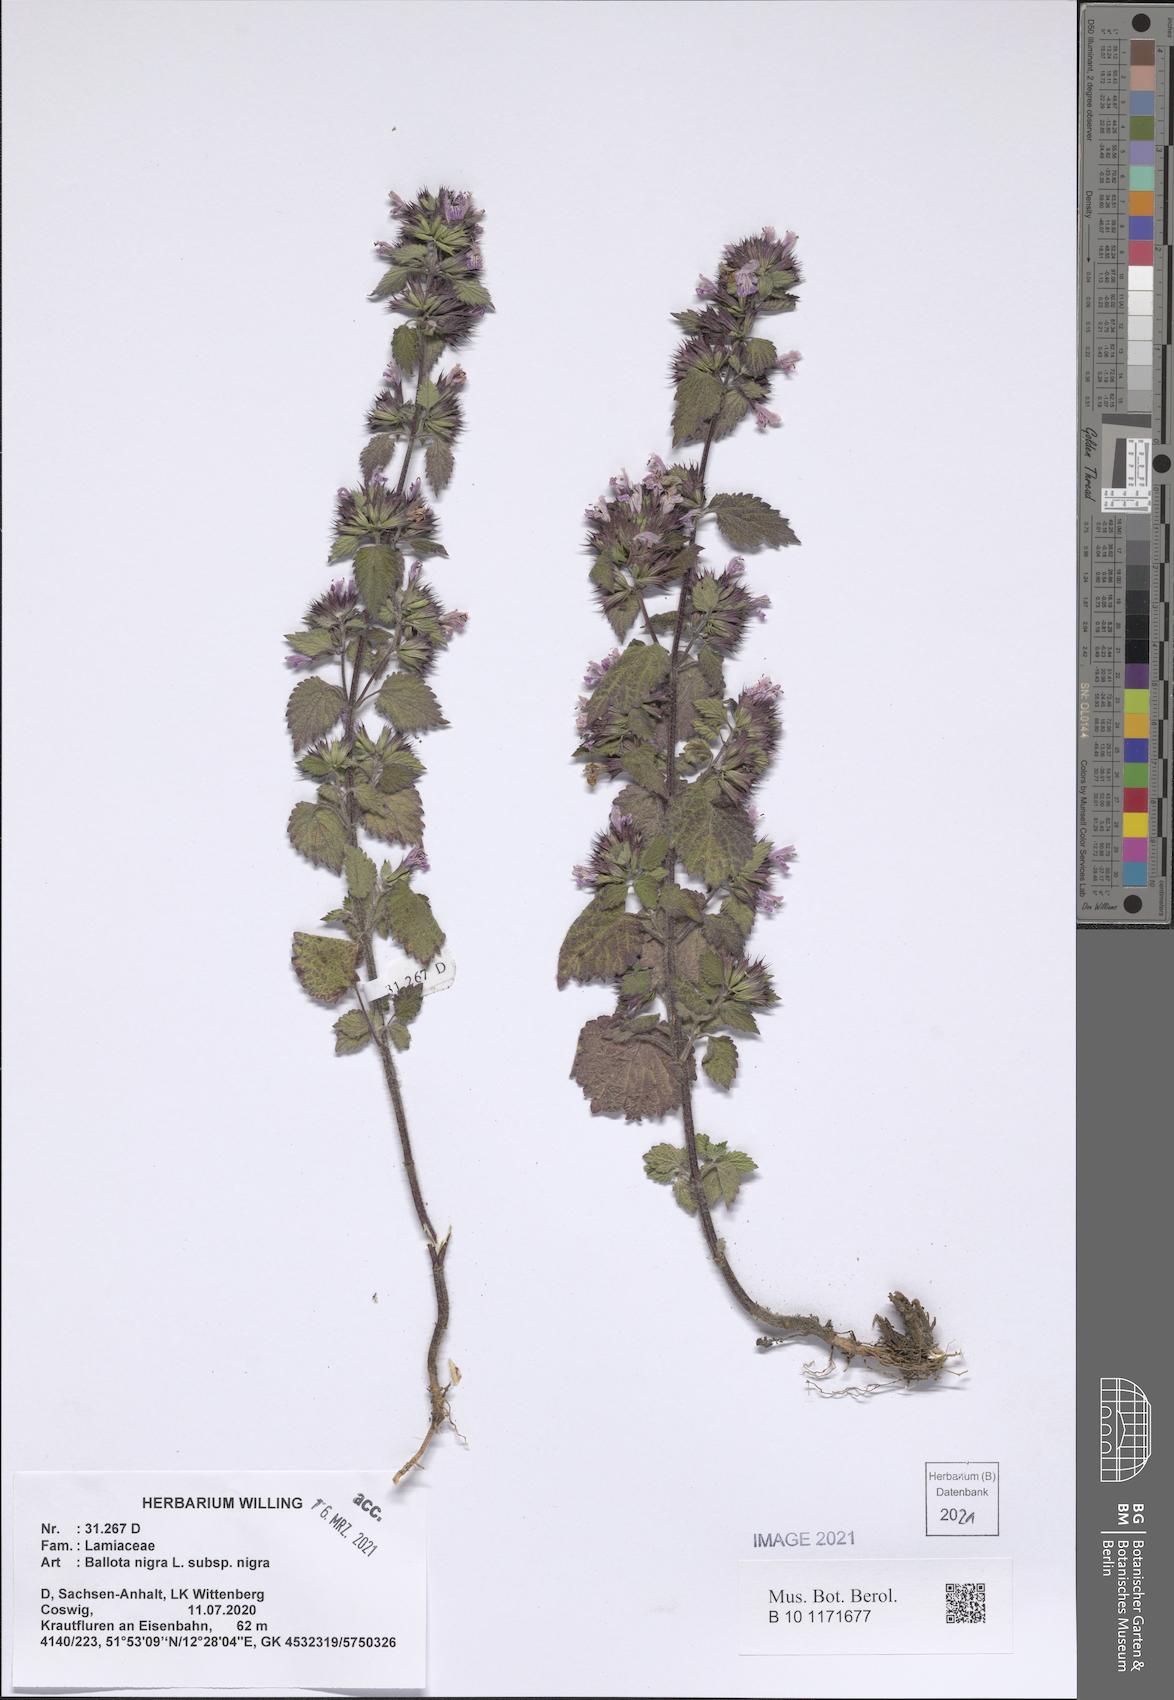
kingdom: Plantae
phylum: Tracheophyta
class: Magnoliopsida
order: Lamiales
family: Lamiaceae
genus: Ballota
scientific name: Ballota nigra
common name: Black horehound
